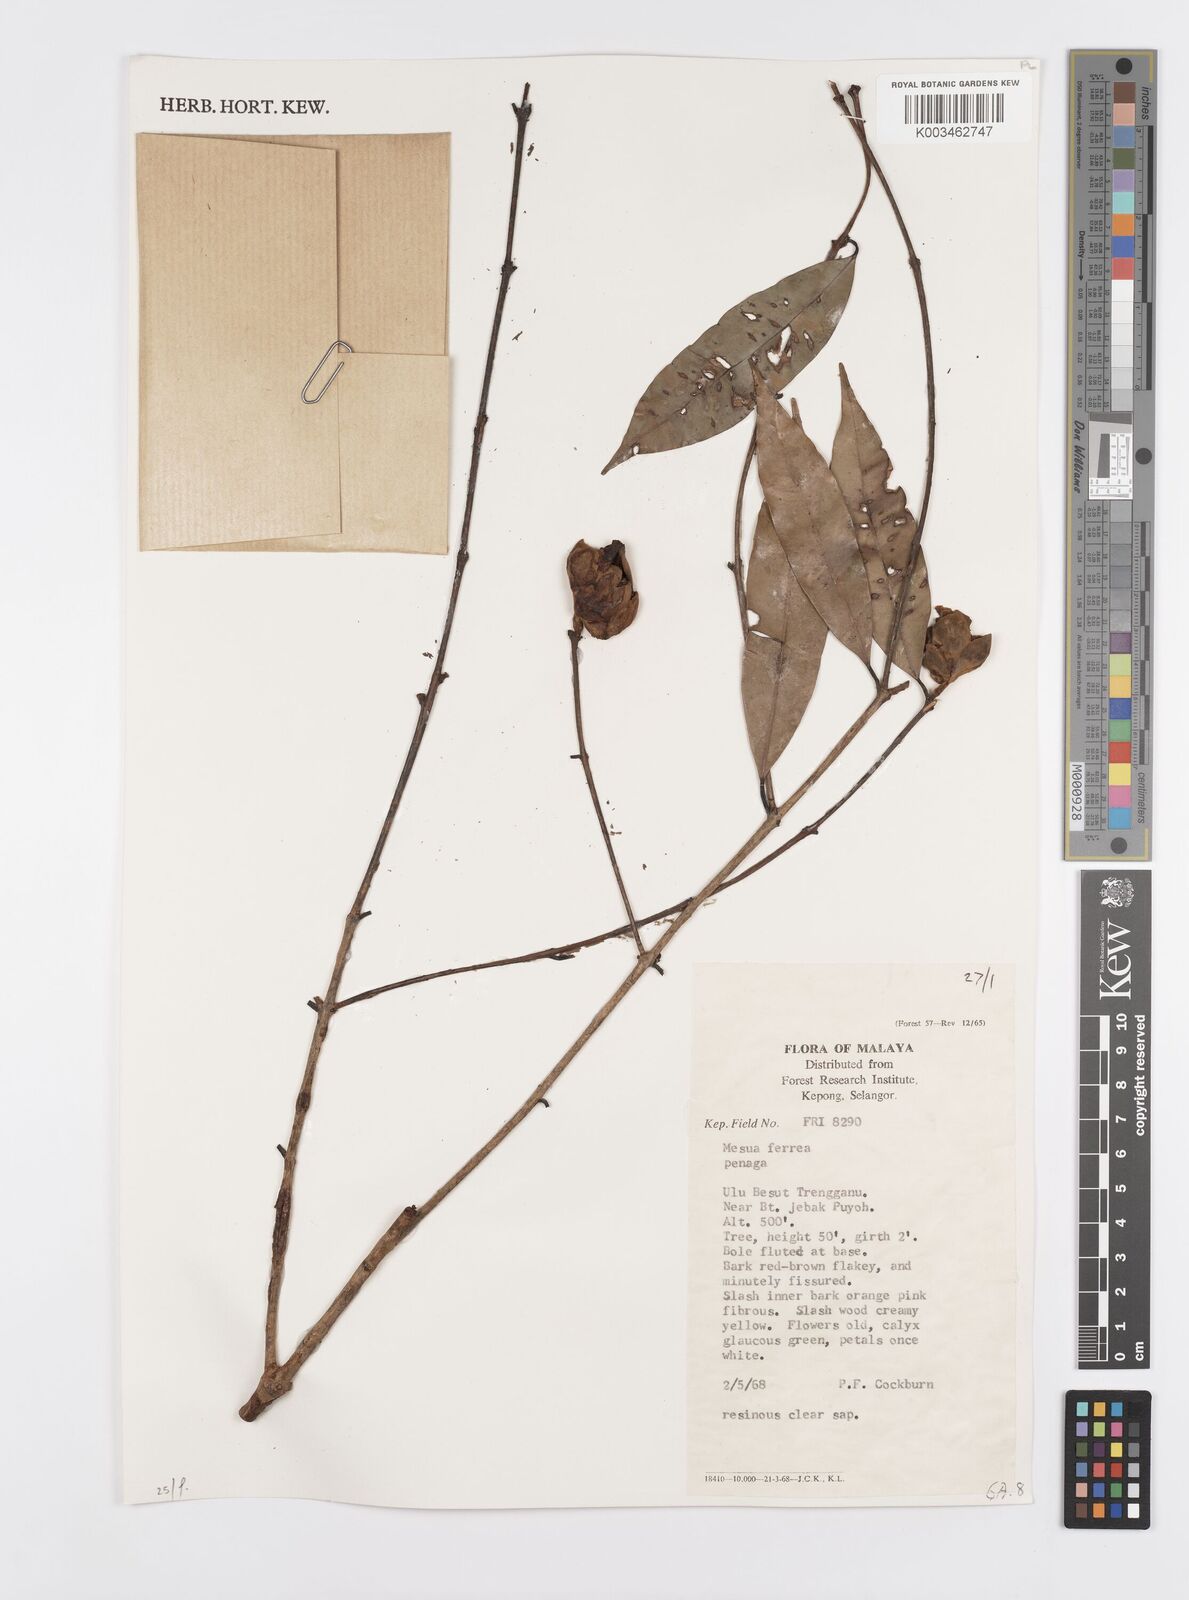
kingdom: Plantae
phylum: Tracheophyta
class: Magnoliopsida
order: Malpighiales
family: Calophyllaceae
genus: Mesua
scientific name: Mesua ferrea
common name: Mesua
